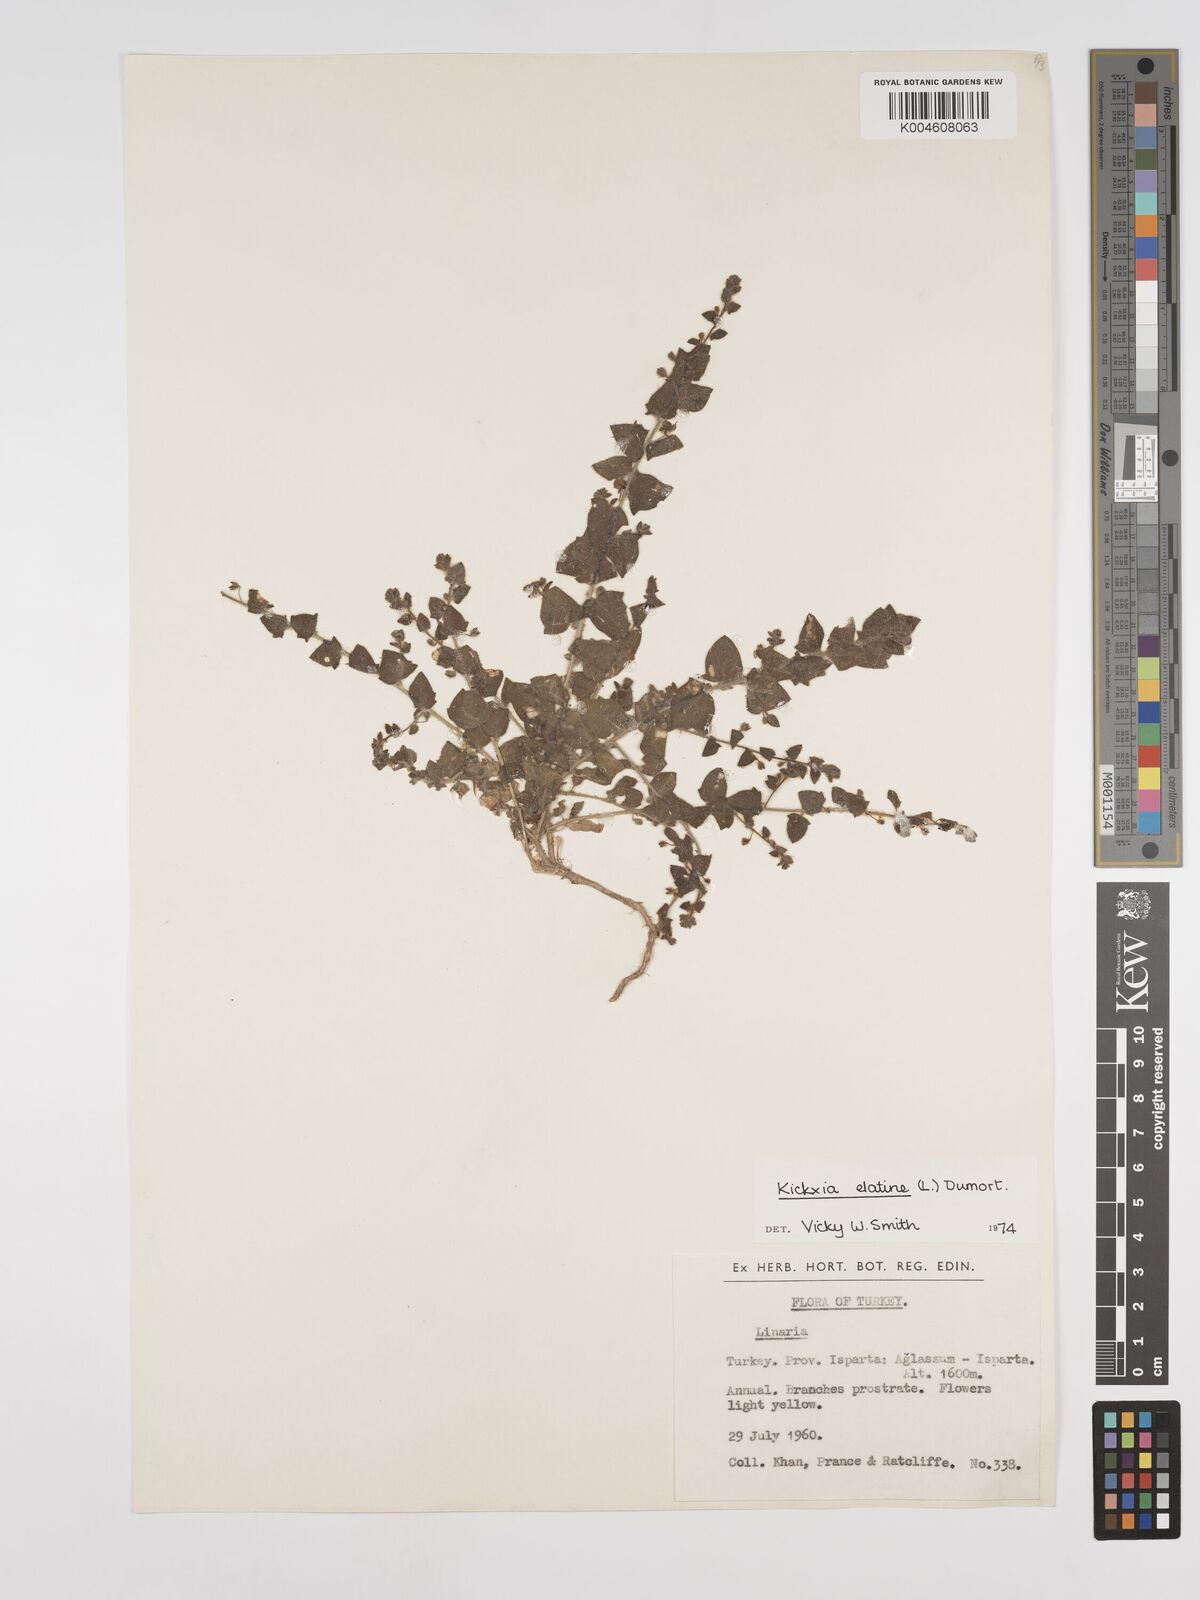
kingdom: Plantae
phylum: Tracheophyta
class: Magnoliopsida
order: Lamiales
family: Plantaginaceae
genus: Kickxia
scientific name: Kickxia elatine
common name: Sharp-leaved fluellen
